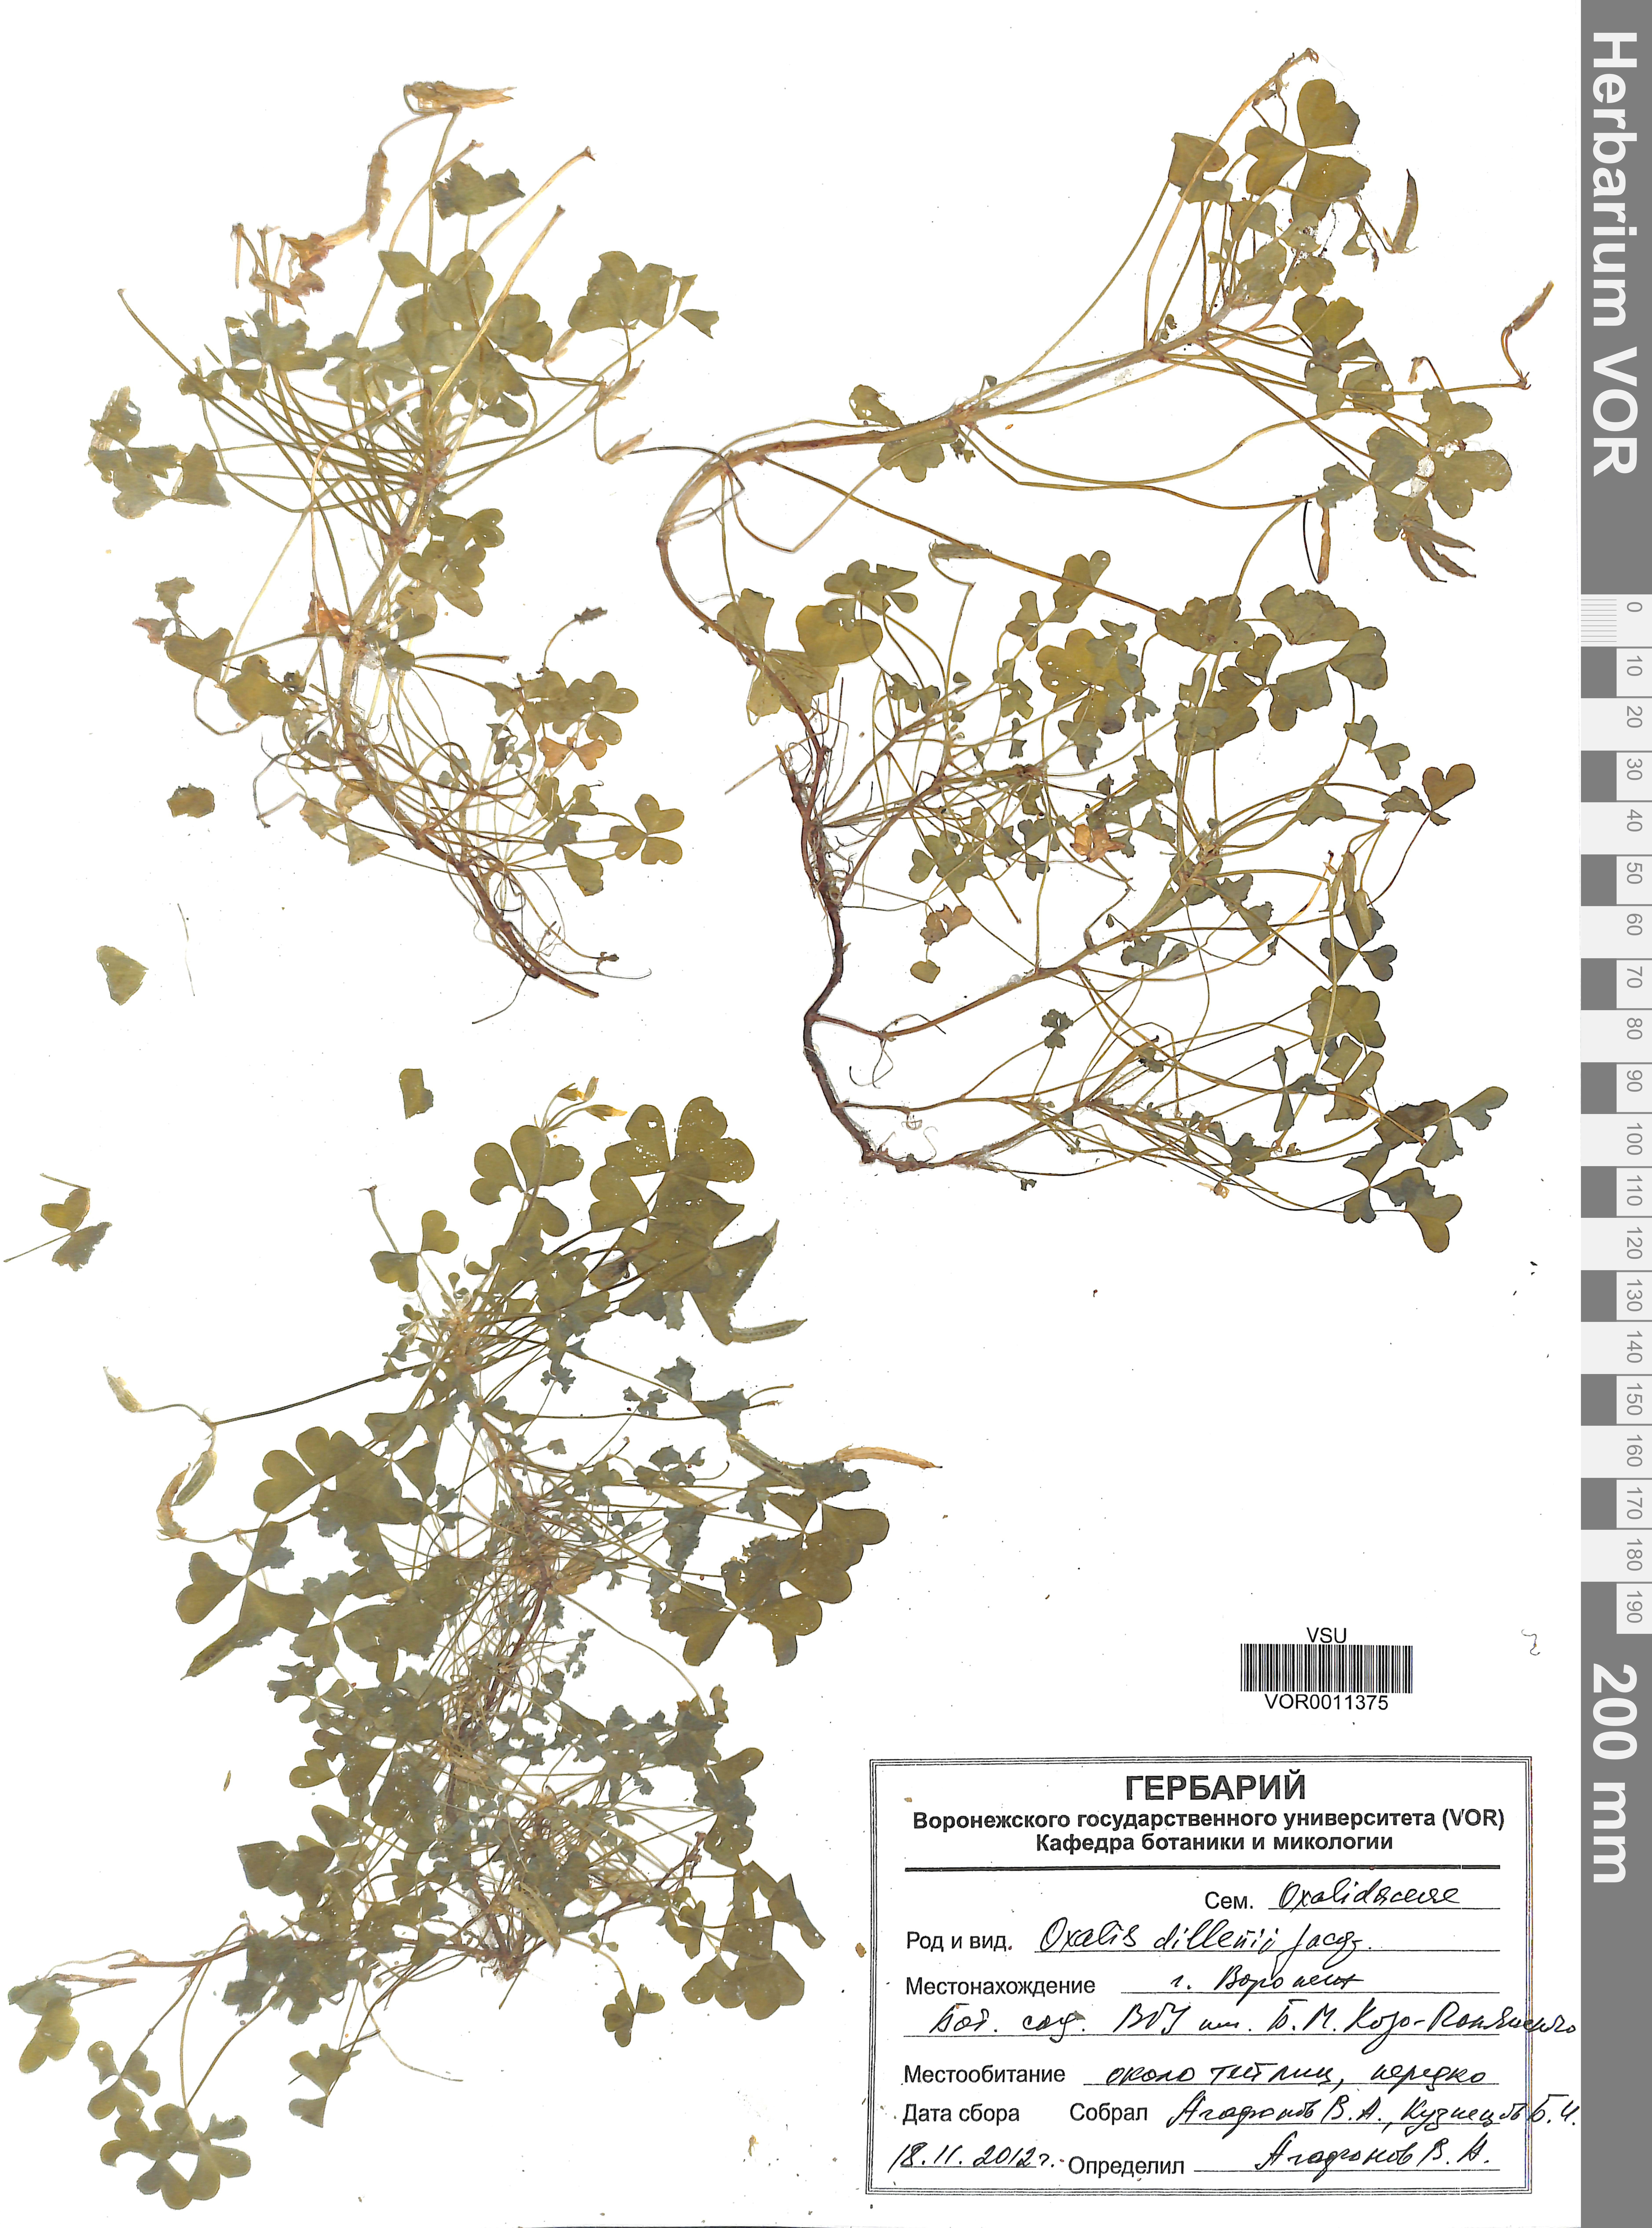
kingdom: Plantae
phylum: Tracheophyta
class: Magnoliopsida
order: Oxalidales
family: Oxalidaceae
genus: Oxalis
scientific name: Oxalis dillenii
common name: Sussex yellow-sorrel
